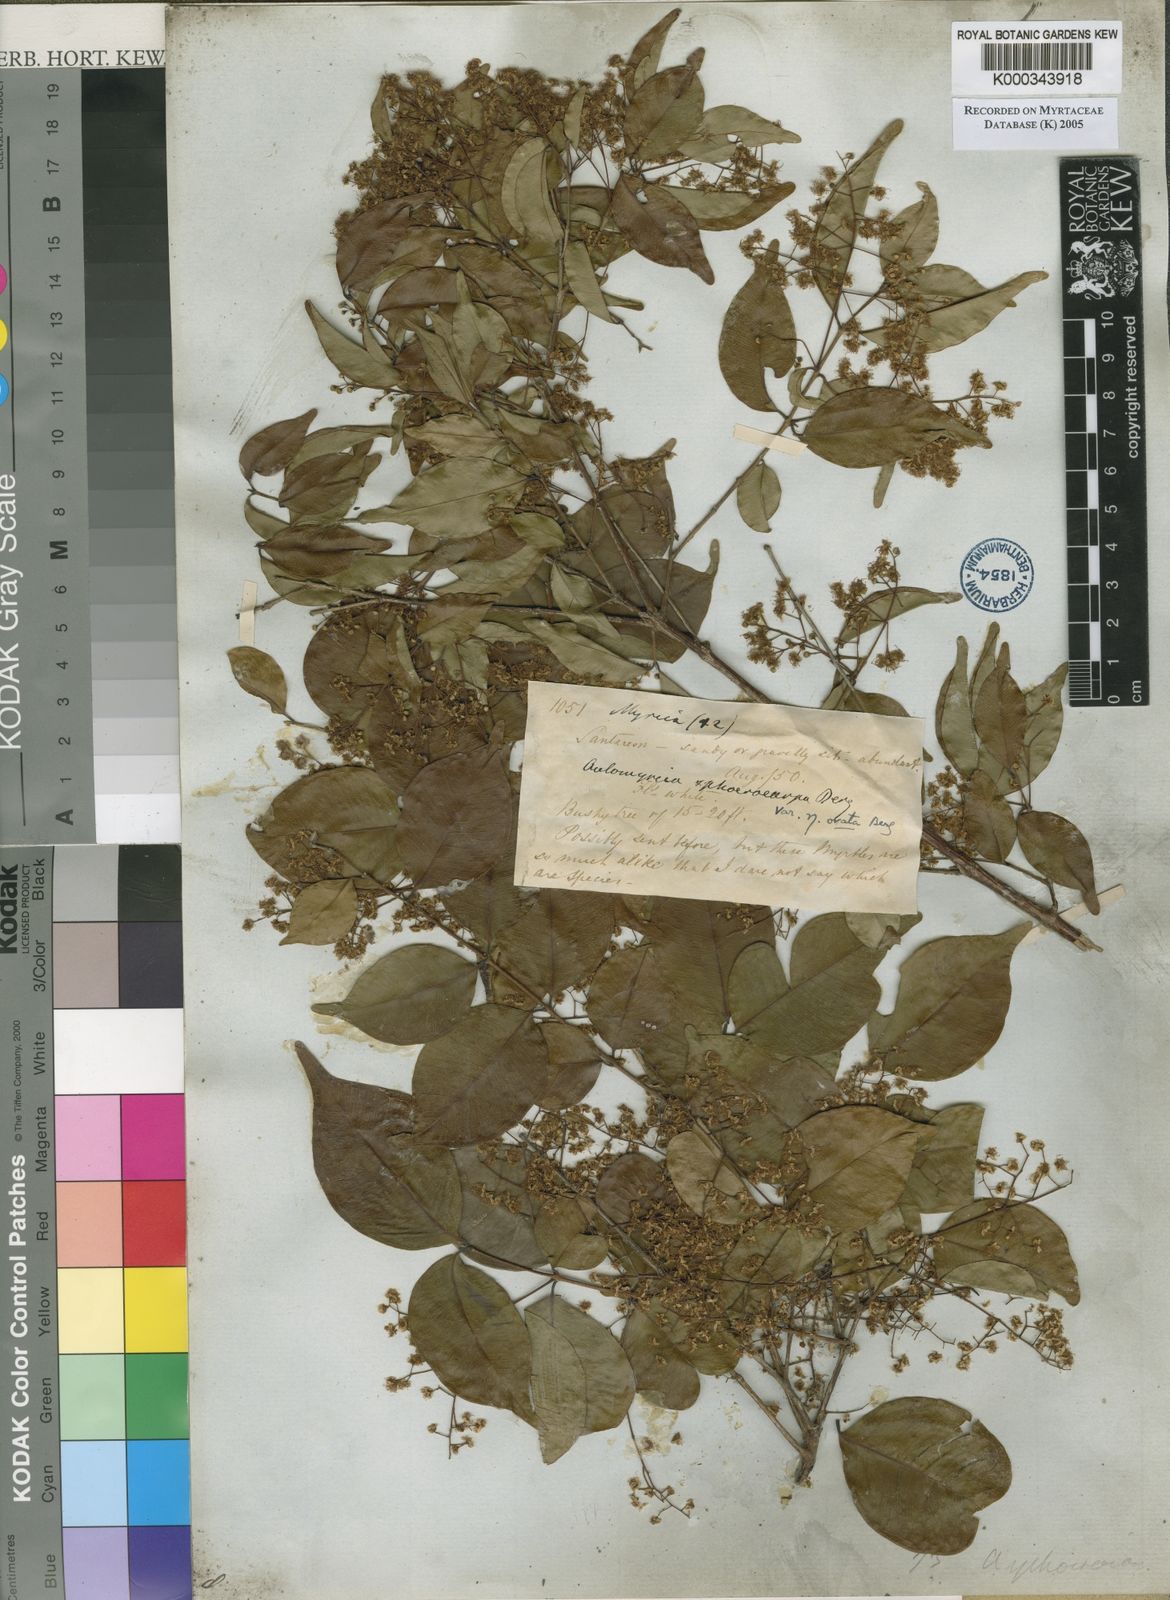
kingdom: Plantae
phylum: Tracheophyta
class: Magnoliopsida
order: Myrtales
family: Myrtaceae
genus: Myrcia
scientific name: Myrcia multiflora
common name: Pedra hume
